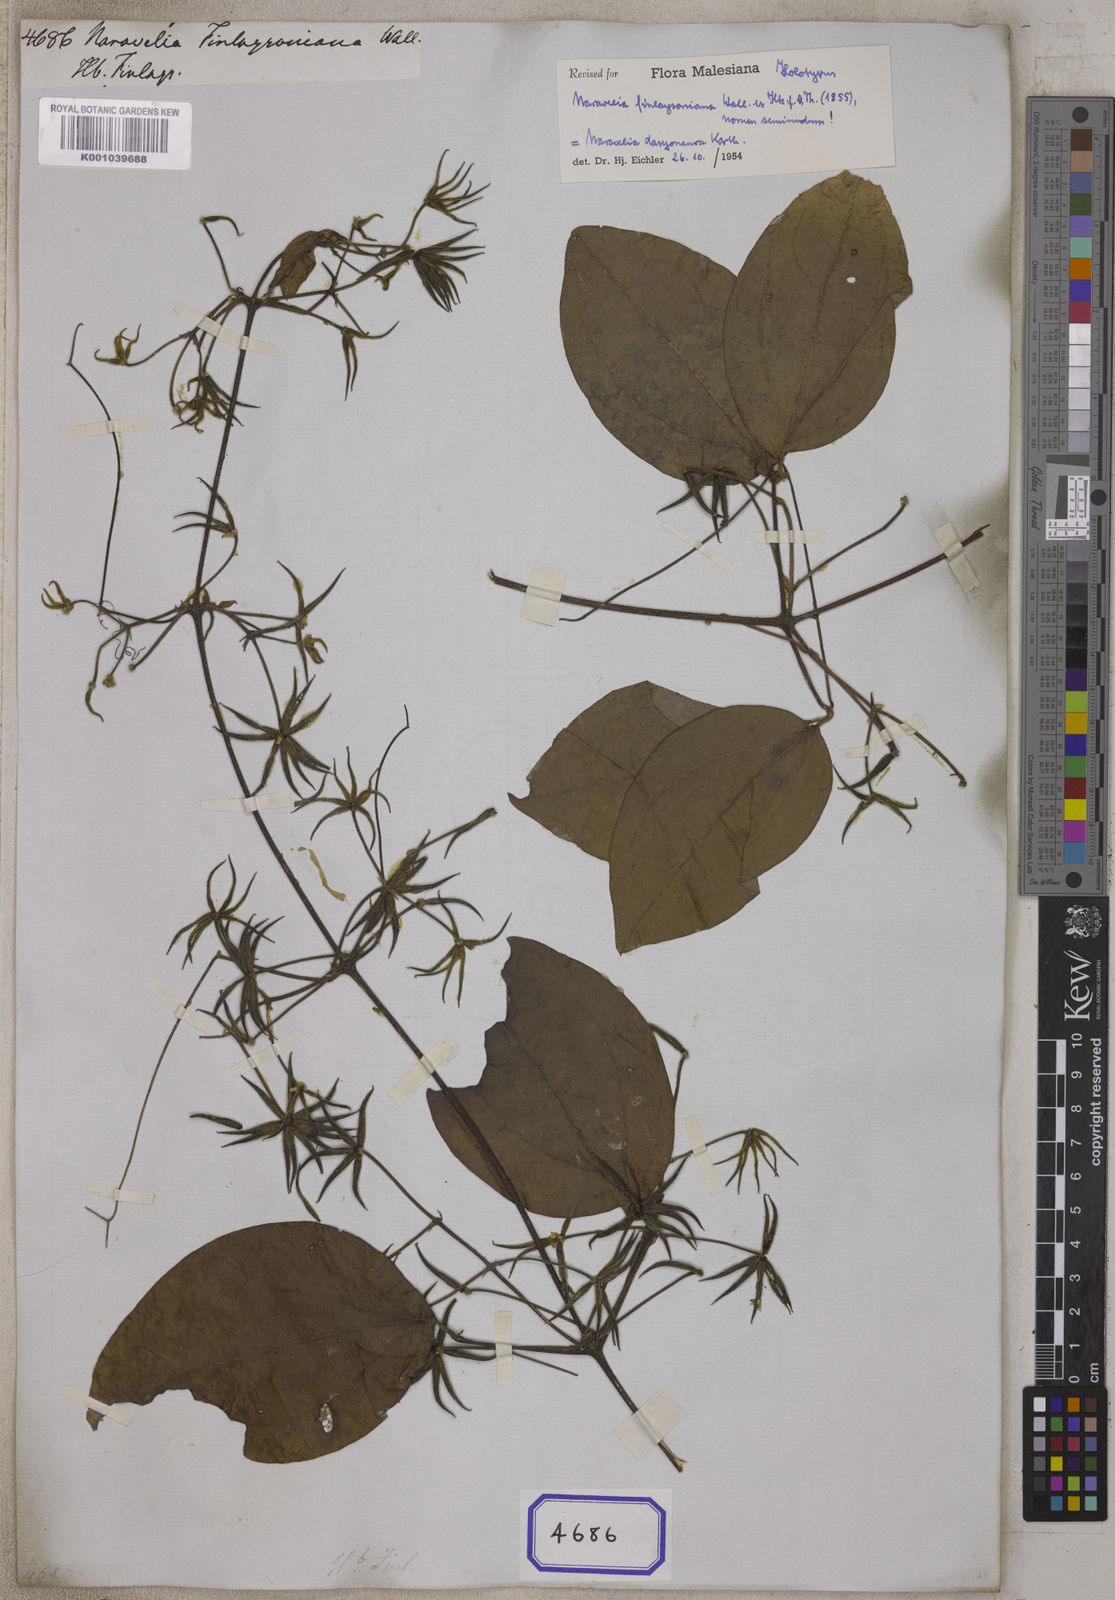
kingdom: Plantae
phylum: Tracheophyta
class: Magnoliopsida
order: Ranunculales
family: Ranunculaceae
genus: Clematis
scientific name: Clematis
